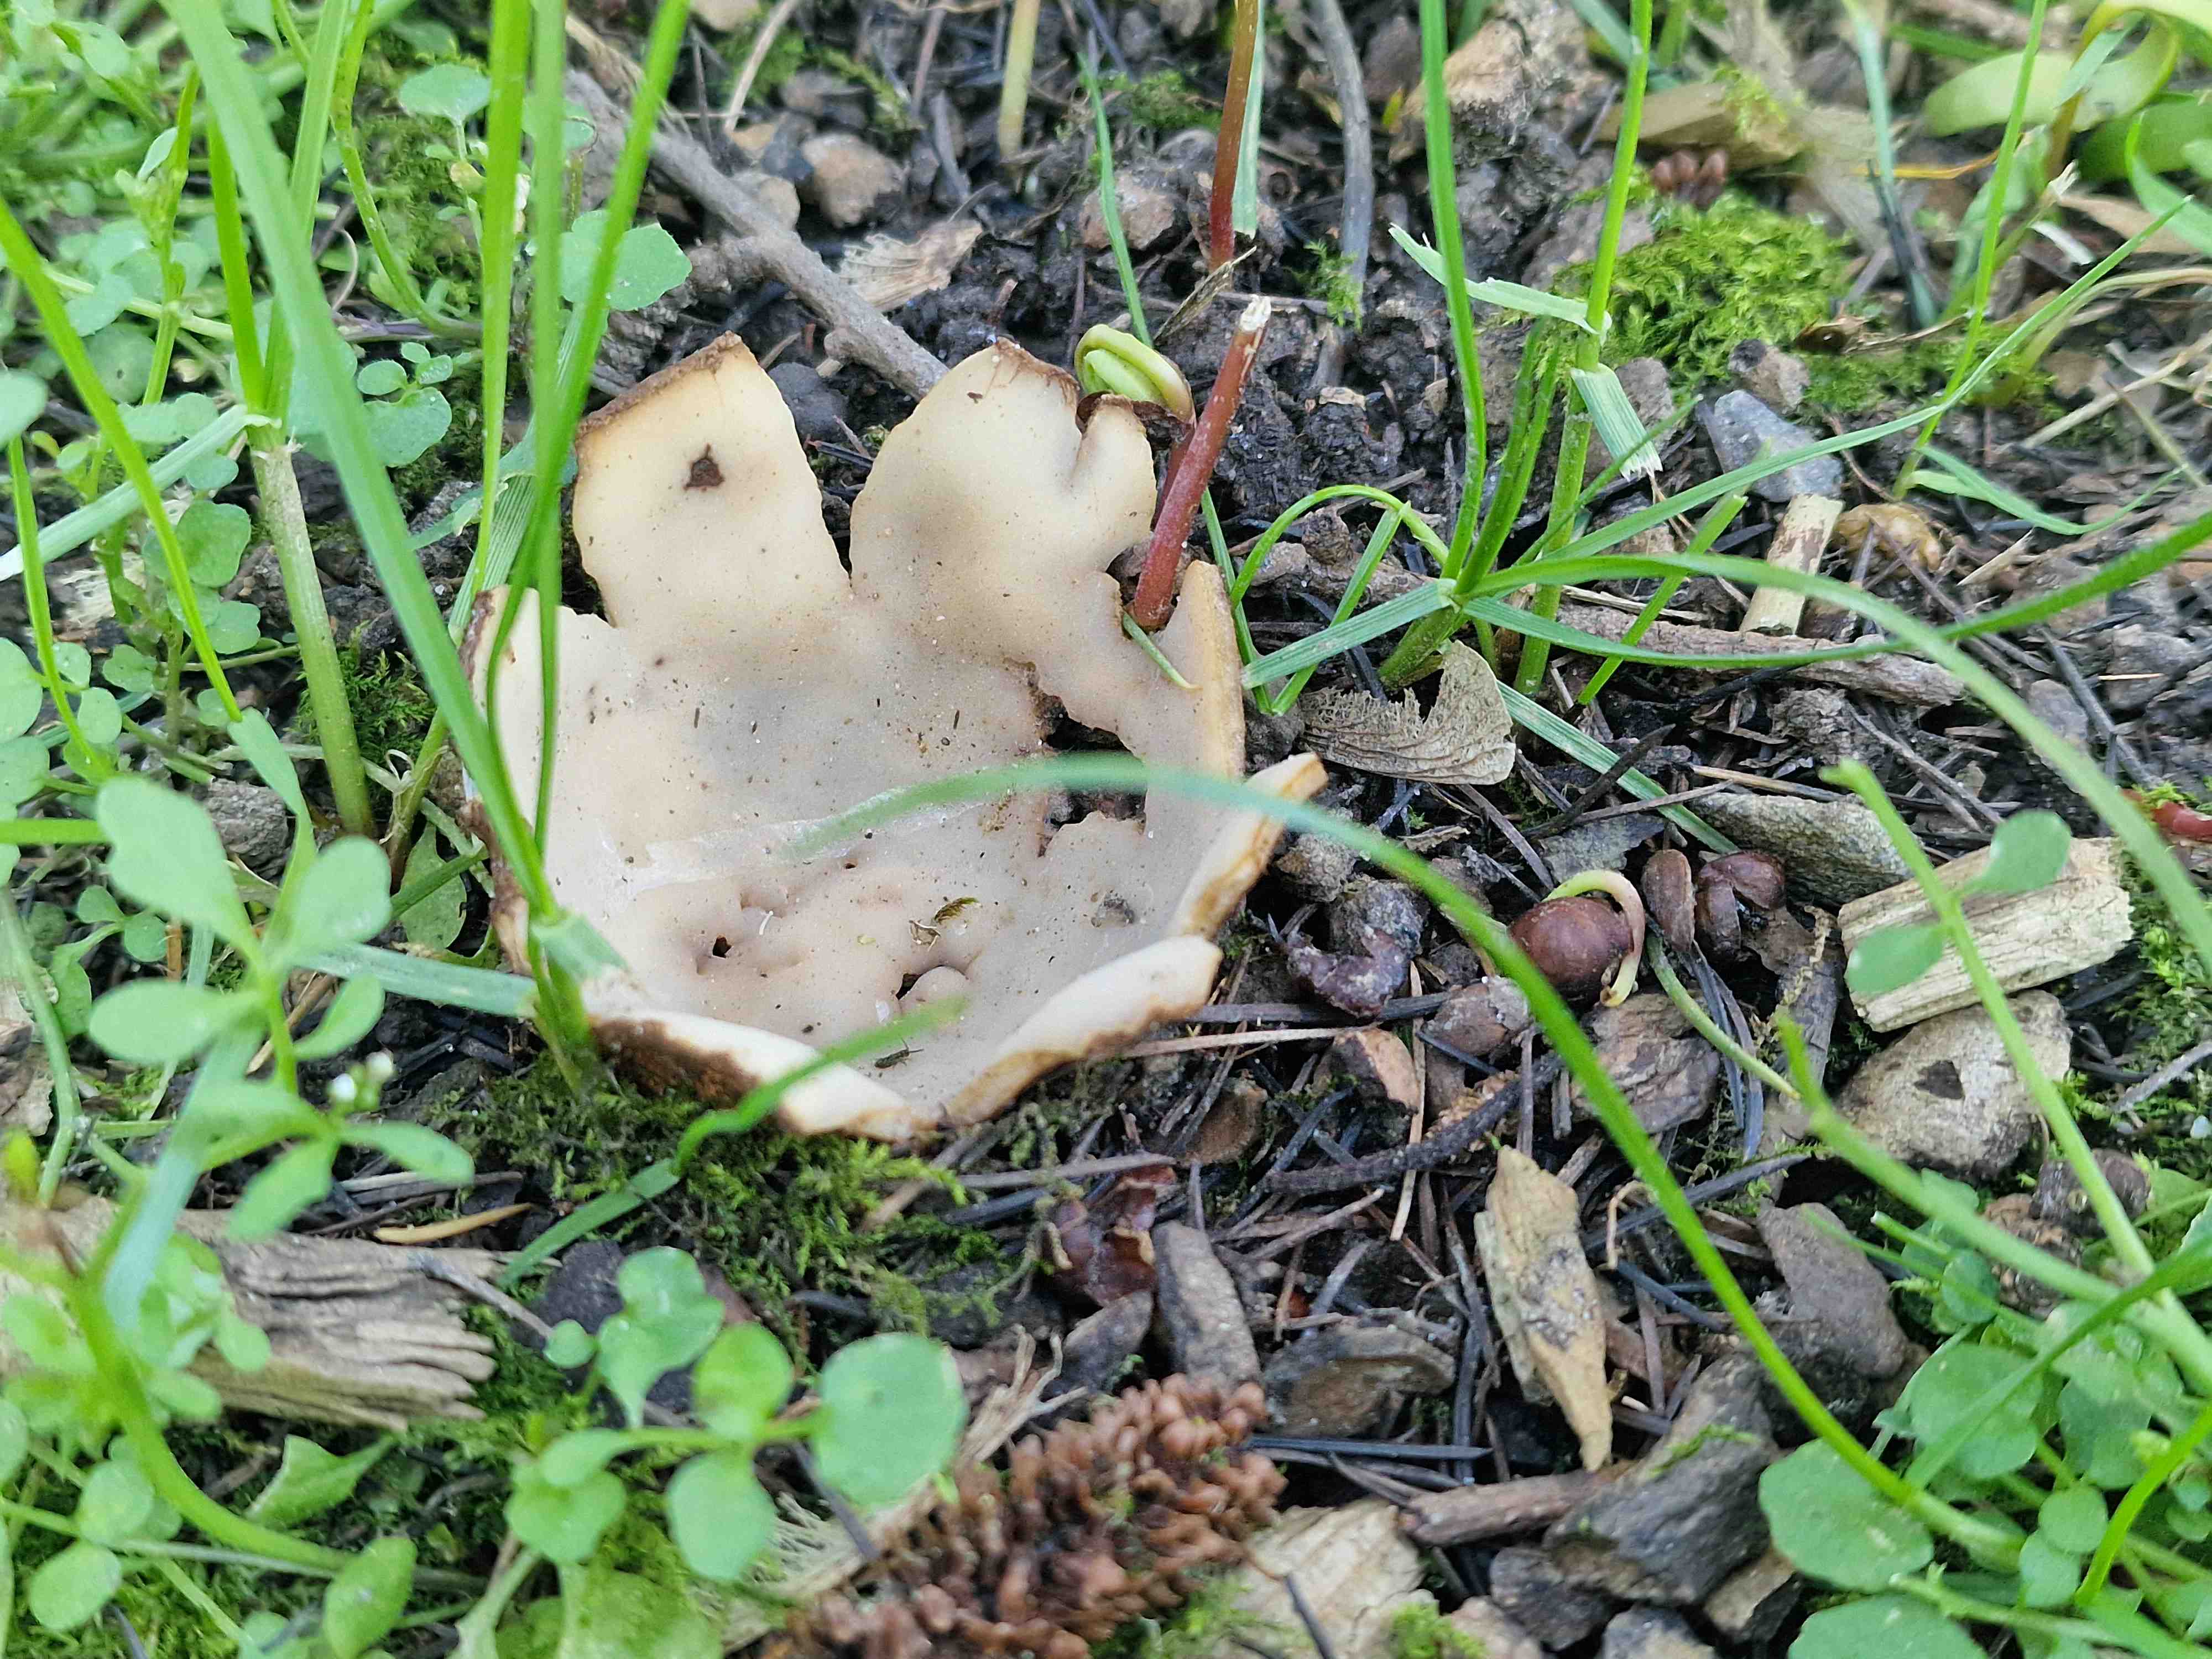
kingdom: Fungi
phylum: Ascomycota
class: Pezizomycetes
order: Pezizales
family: Pyronemataceae
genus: Geopora
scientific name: Geopora sumneriana
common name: vår-jordbæger
